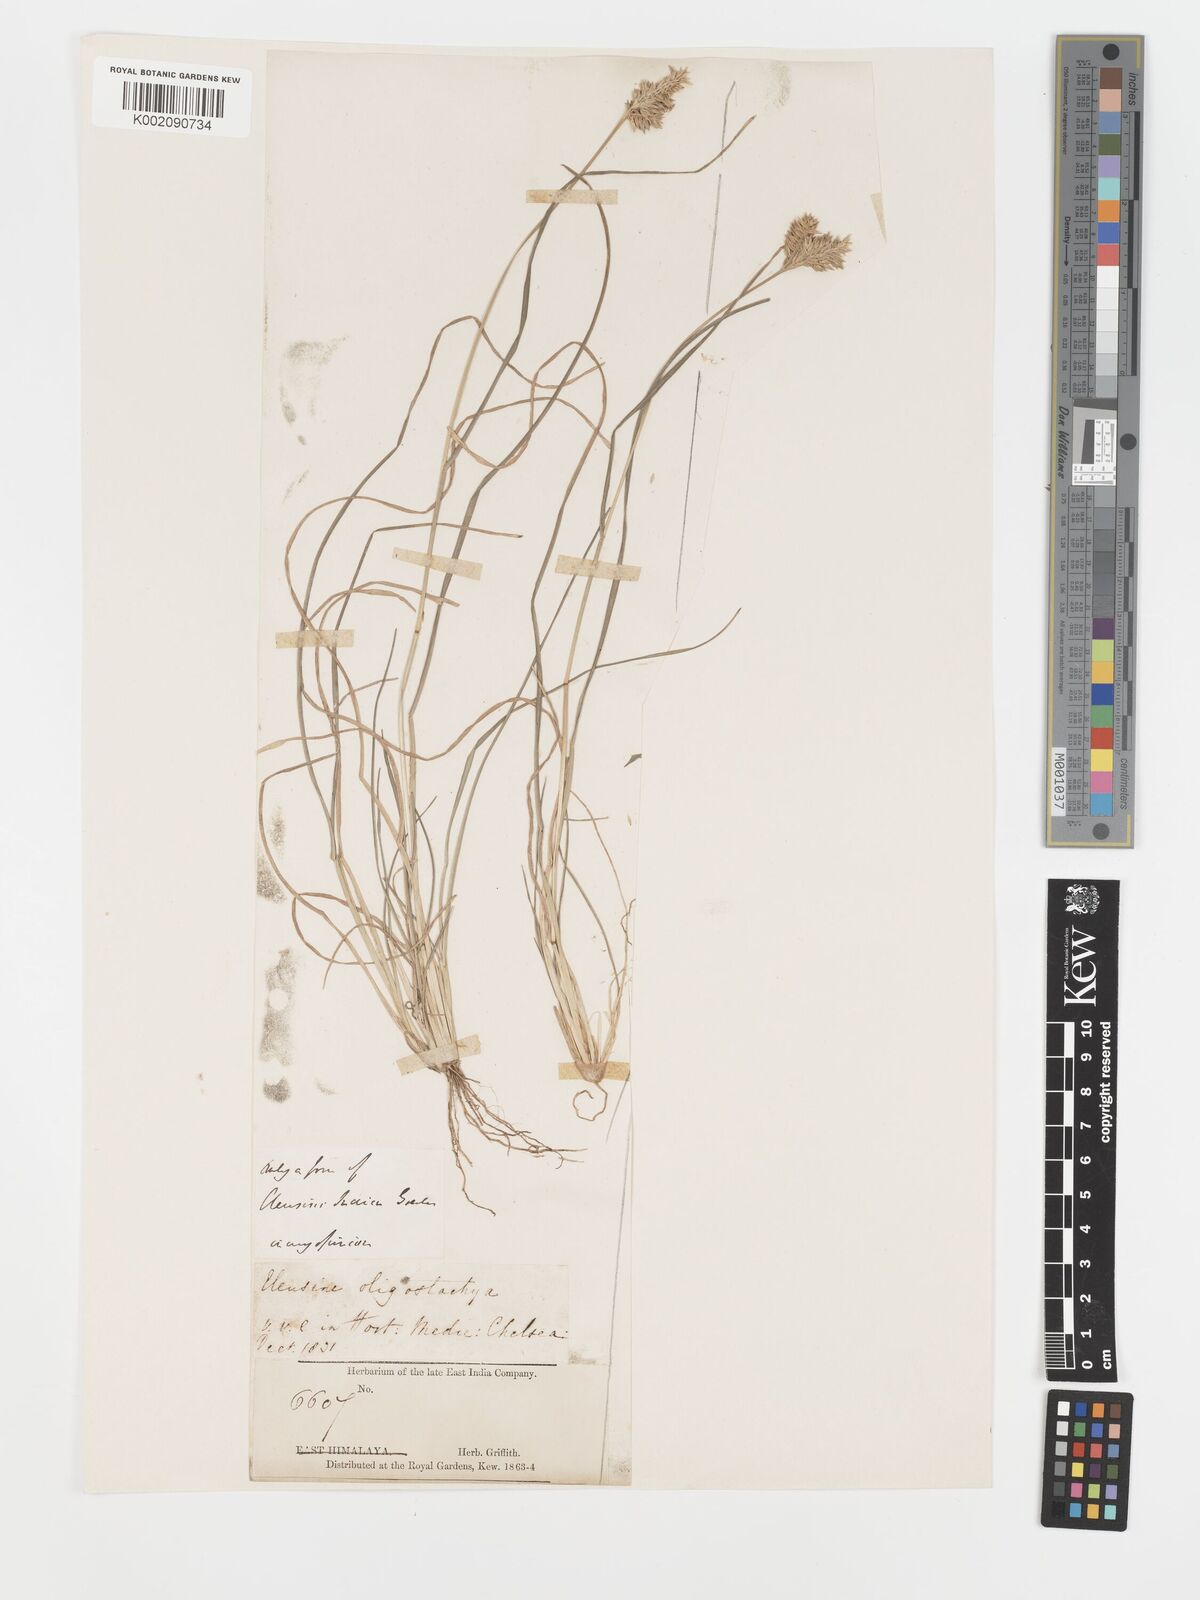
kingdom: Plantae
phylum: Tracheophyta
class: Liliopsida
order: Poales
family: Poaceae
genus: Eleusine
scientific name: Eleusine tristachya
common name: American yard-grass
